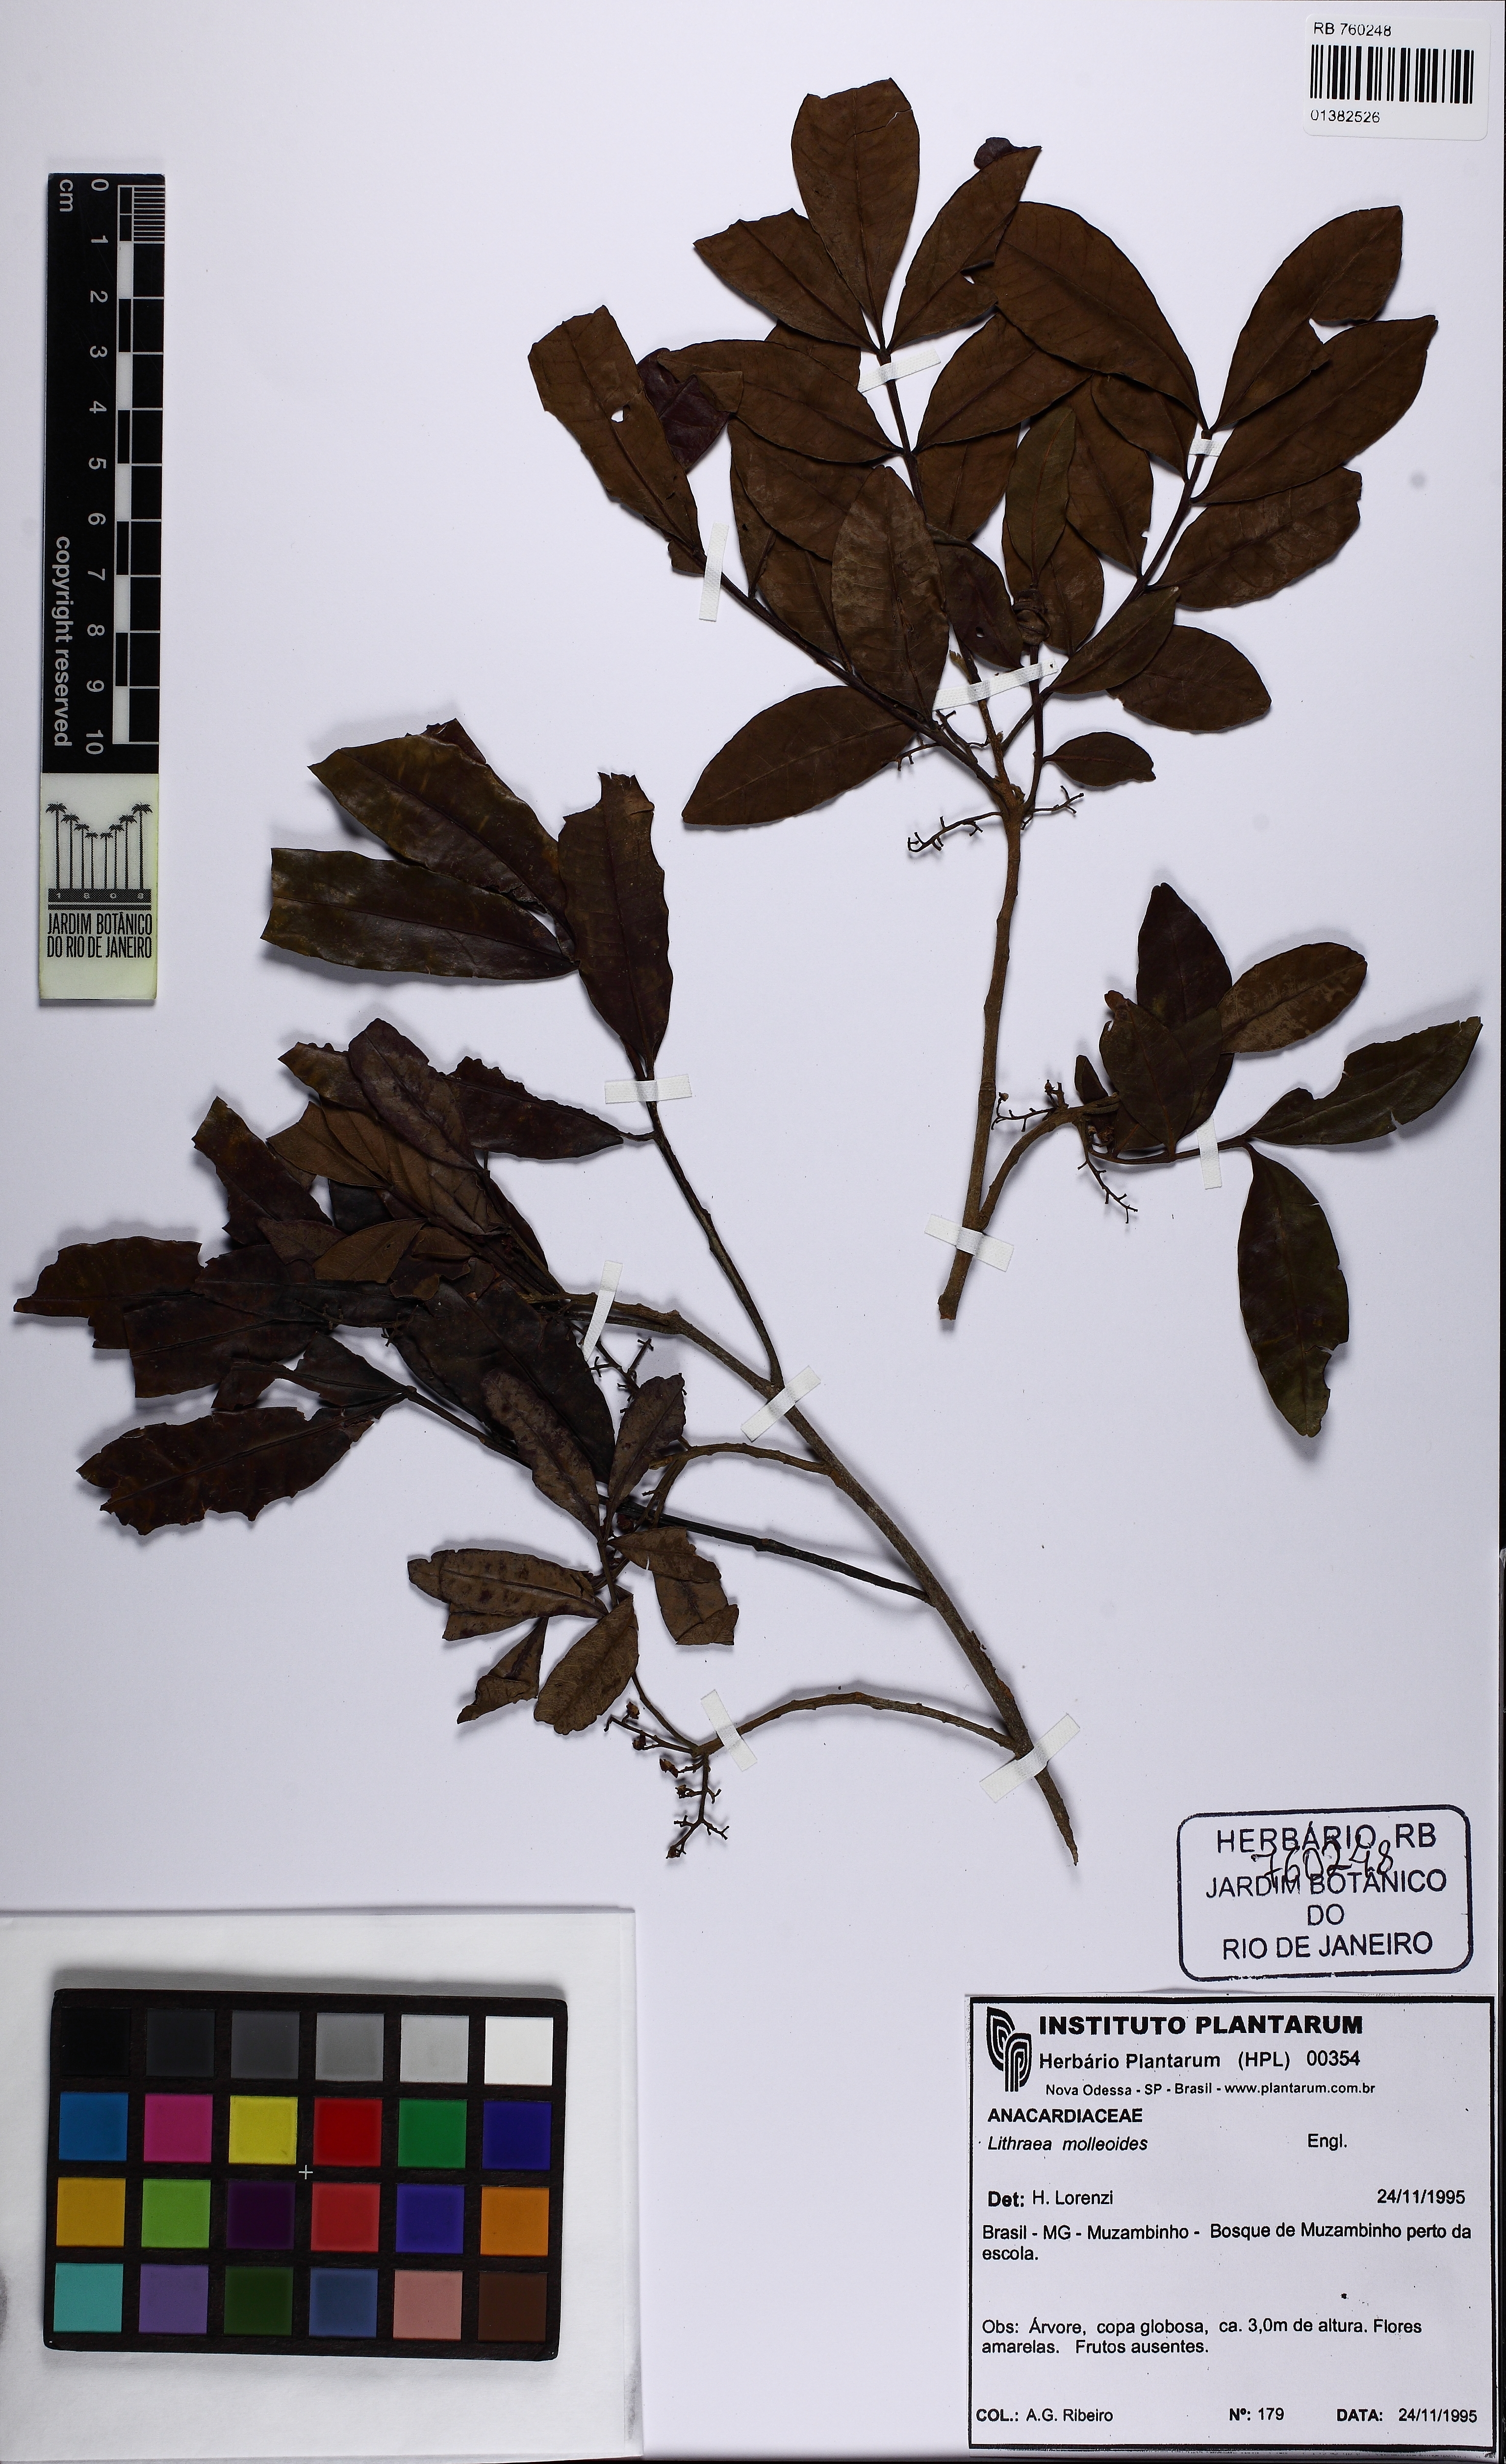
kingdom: Plantae
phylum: Tracheophyta
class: Magnoliopsida
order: Sapindales
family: Anacardiaceae
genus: Lithraea
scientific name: Lithraea molleoides
